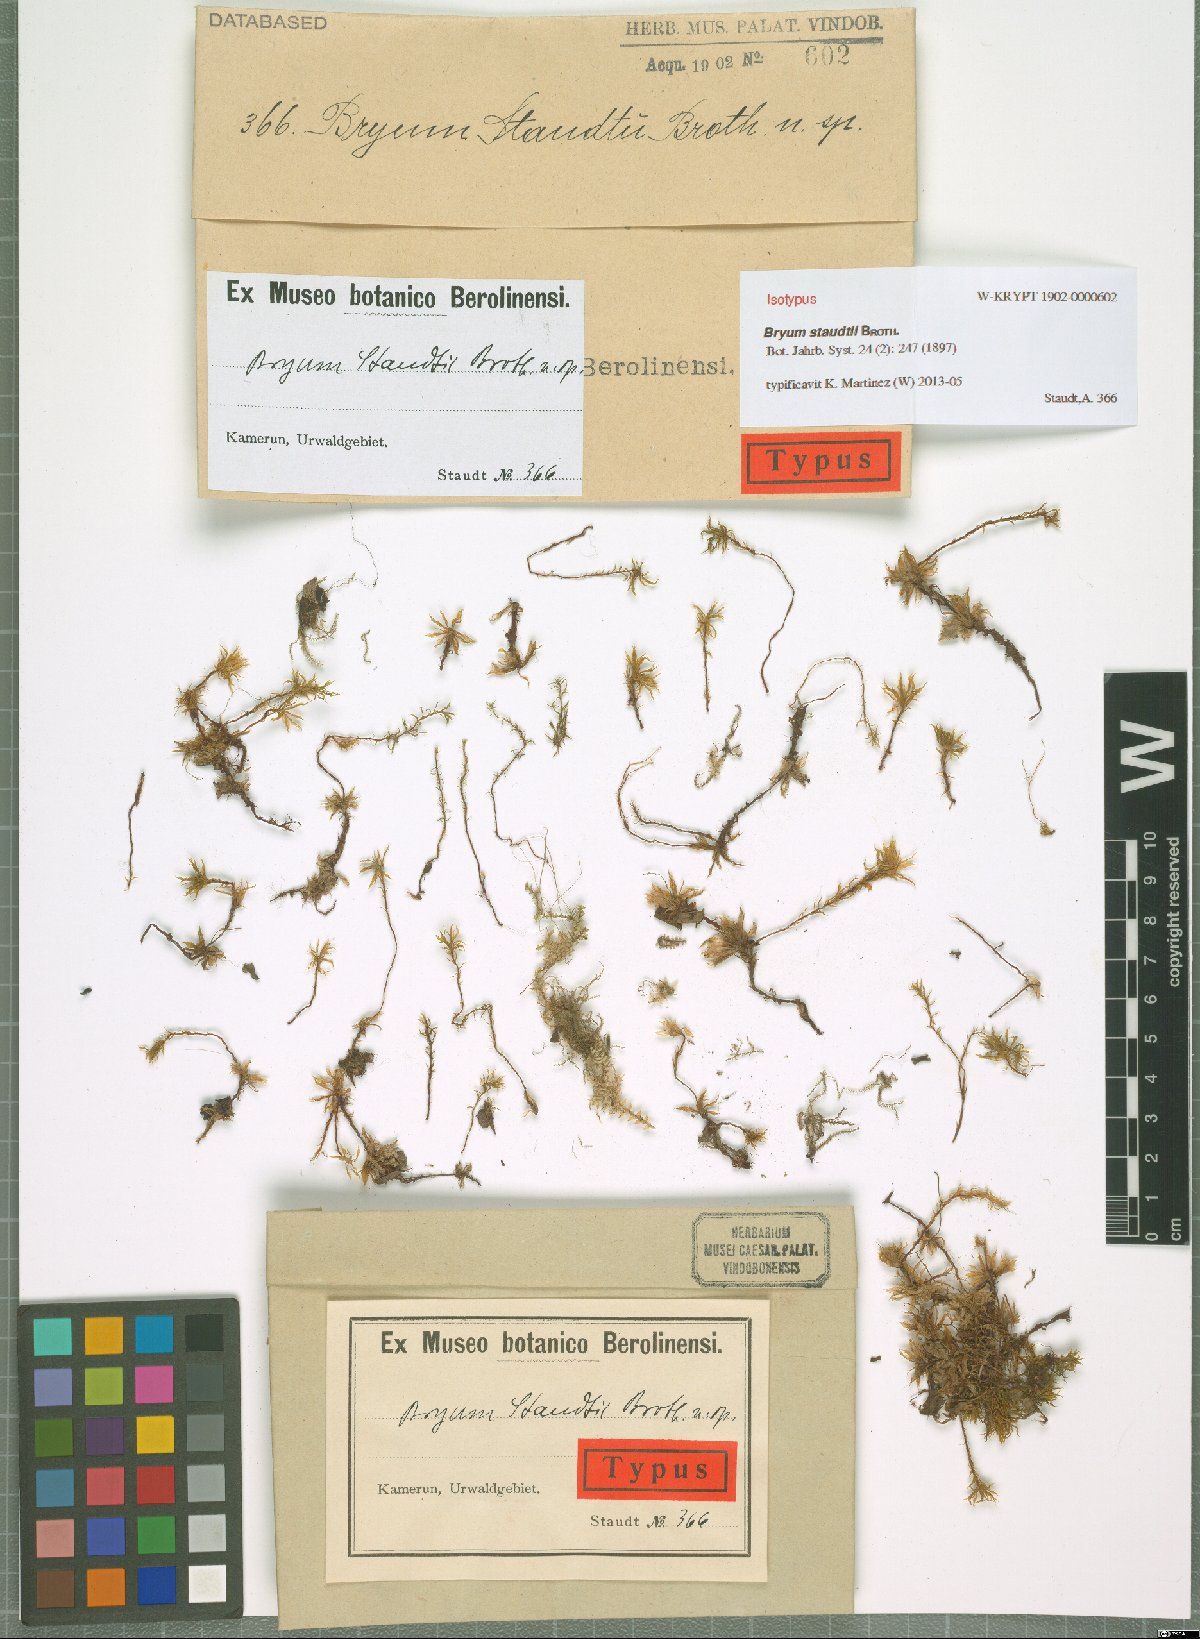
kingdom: Plantae
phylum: Bryophyta
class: Bryopsida
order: Bryales
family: Bryaceae
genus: Rhodobryum
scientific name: Rhodobryum staudtii
